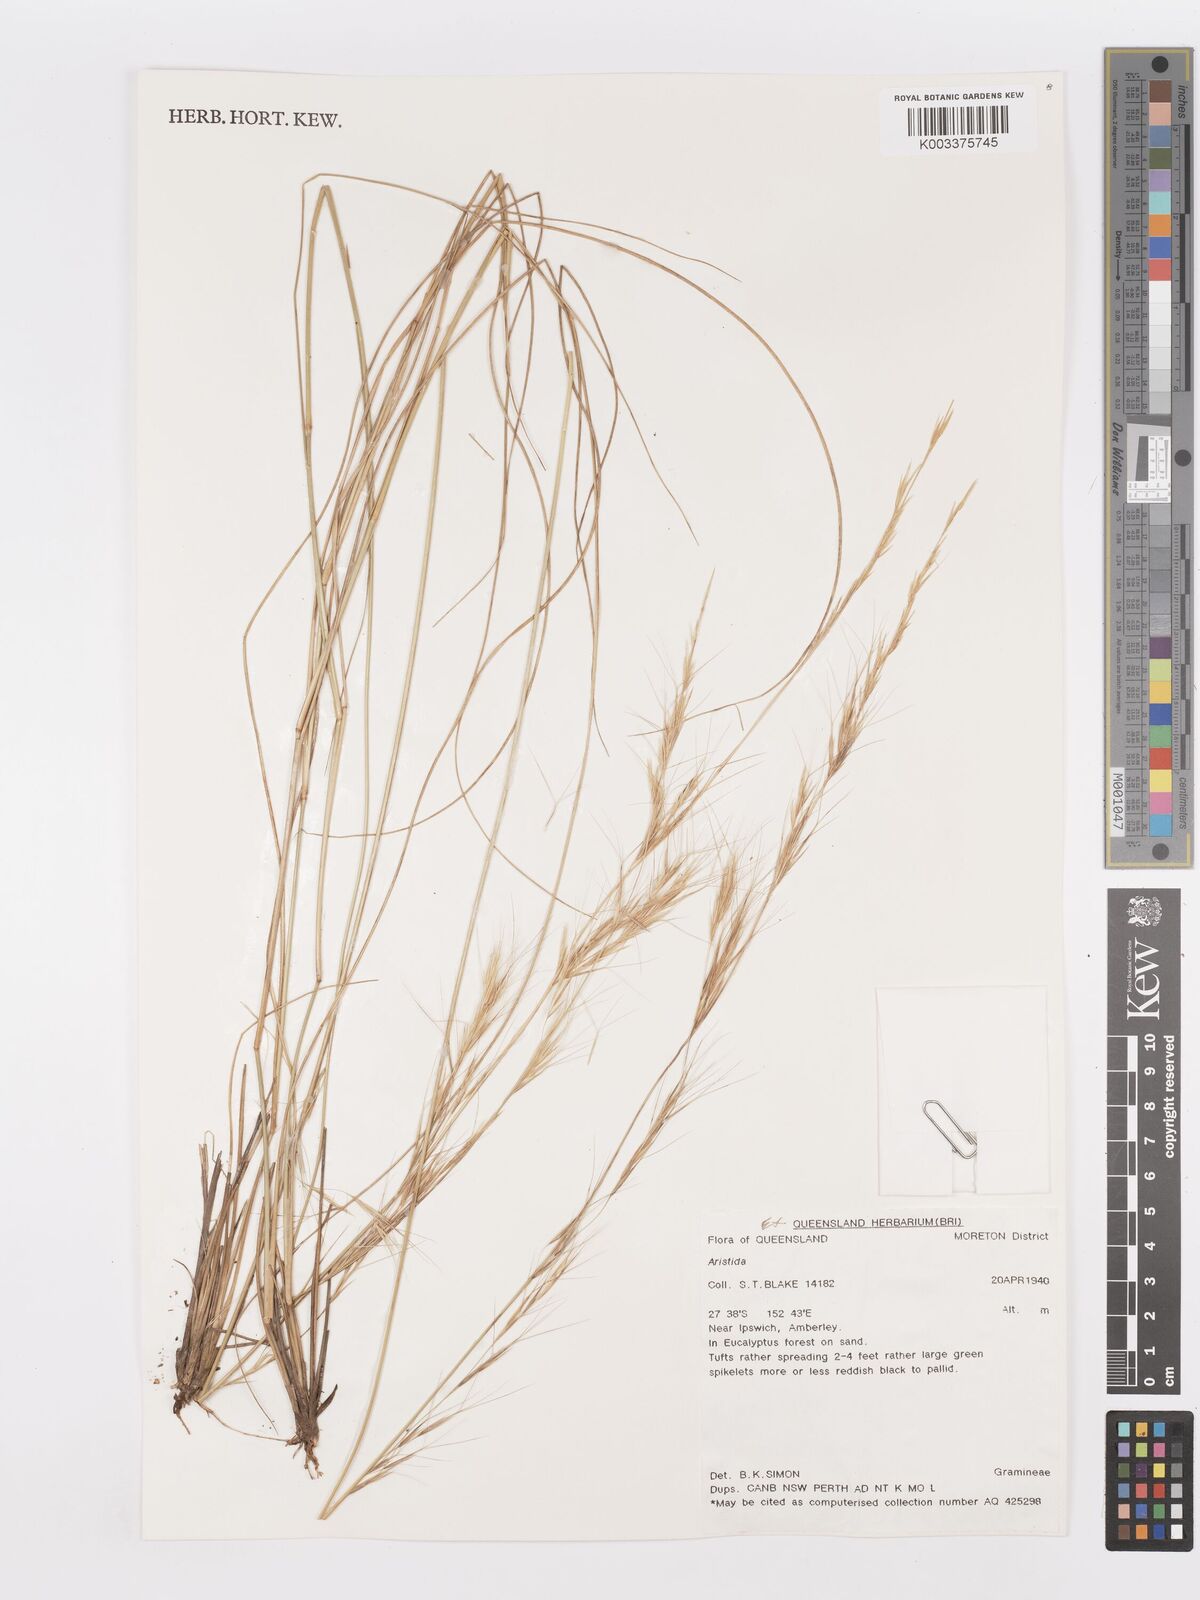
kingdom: Plantae
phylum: Tracheophyta
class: Liliopsida
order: Poales
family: Poaceae
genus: Aristida
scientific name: Aristida
